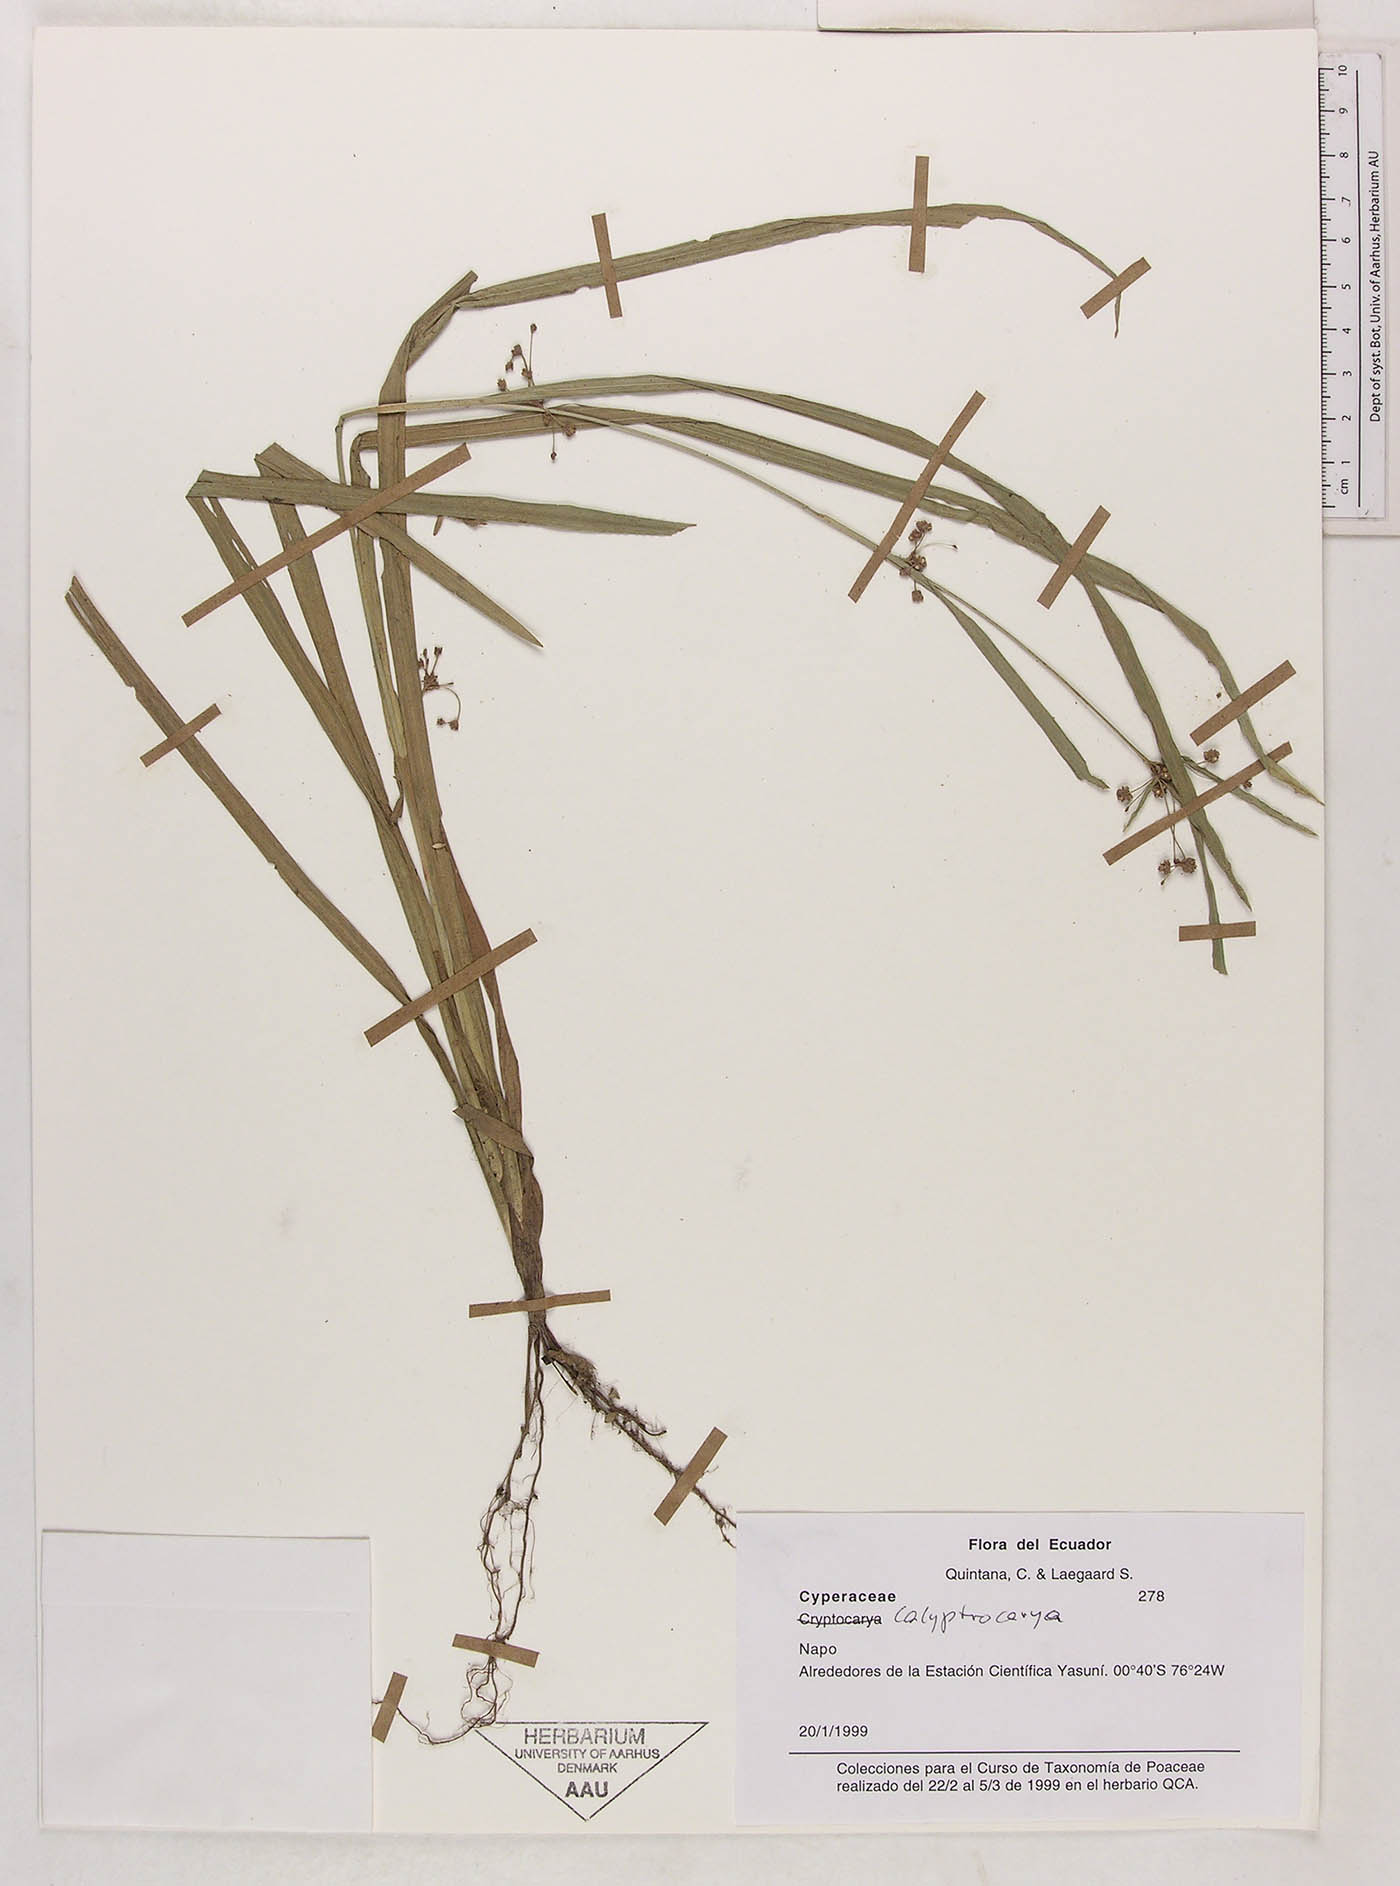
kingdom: Plantae
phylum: Tracheophyta
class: Liliopsida
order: Poales
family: Cyperaceae
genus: Calyptrocarya
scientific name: Calyptrocarya
